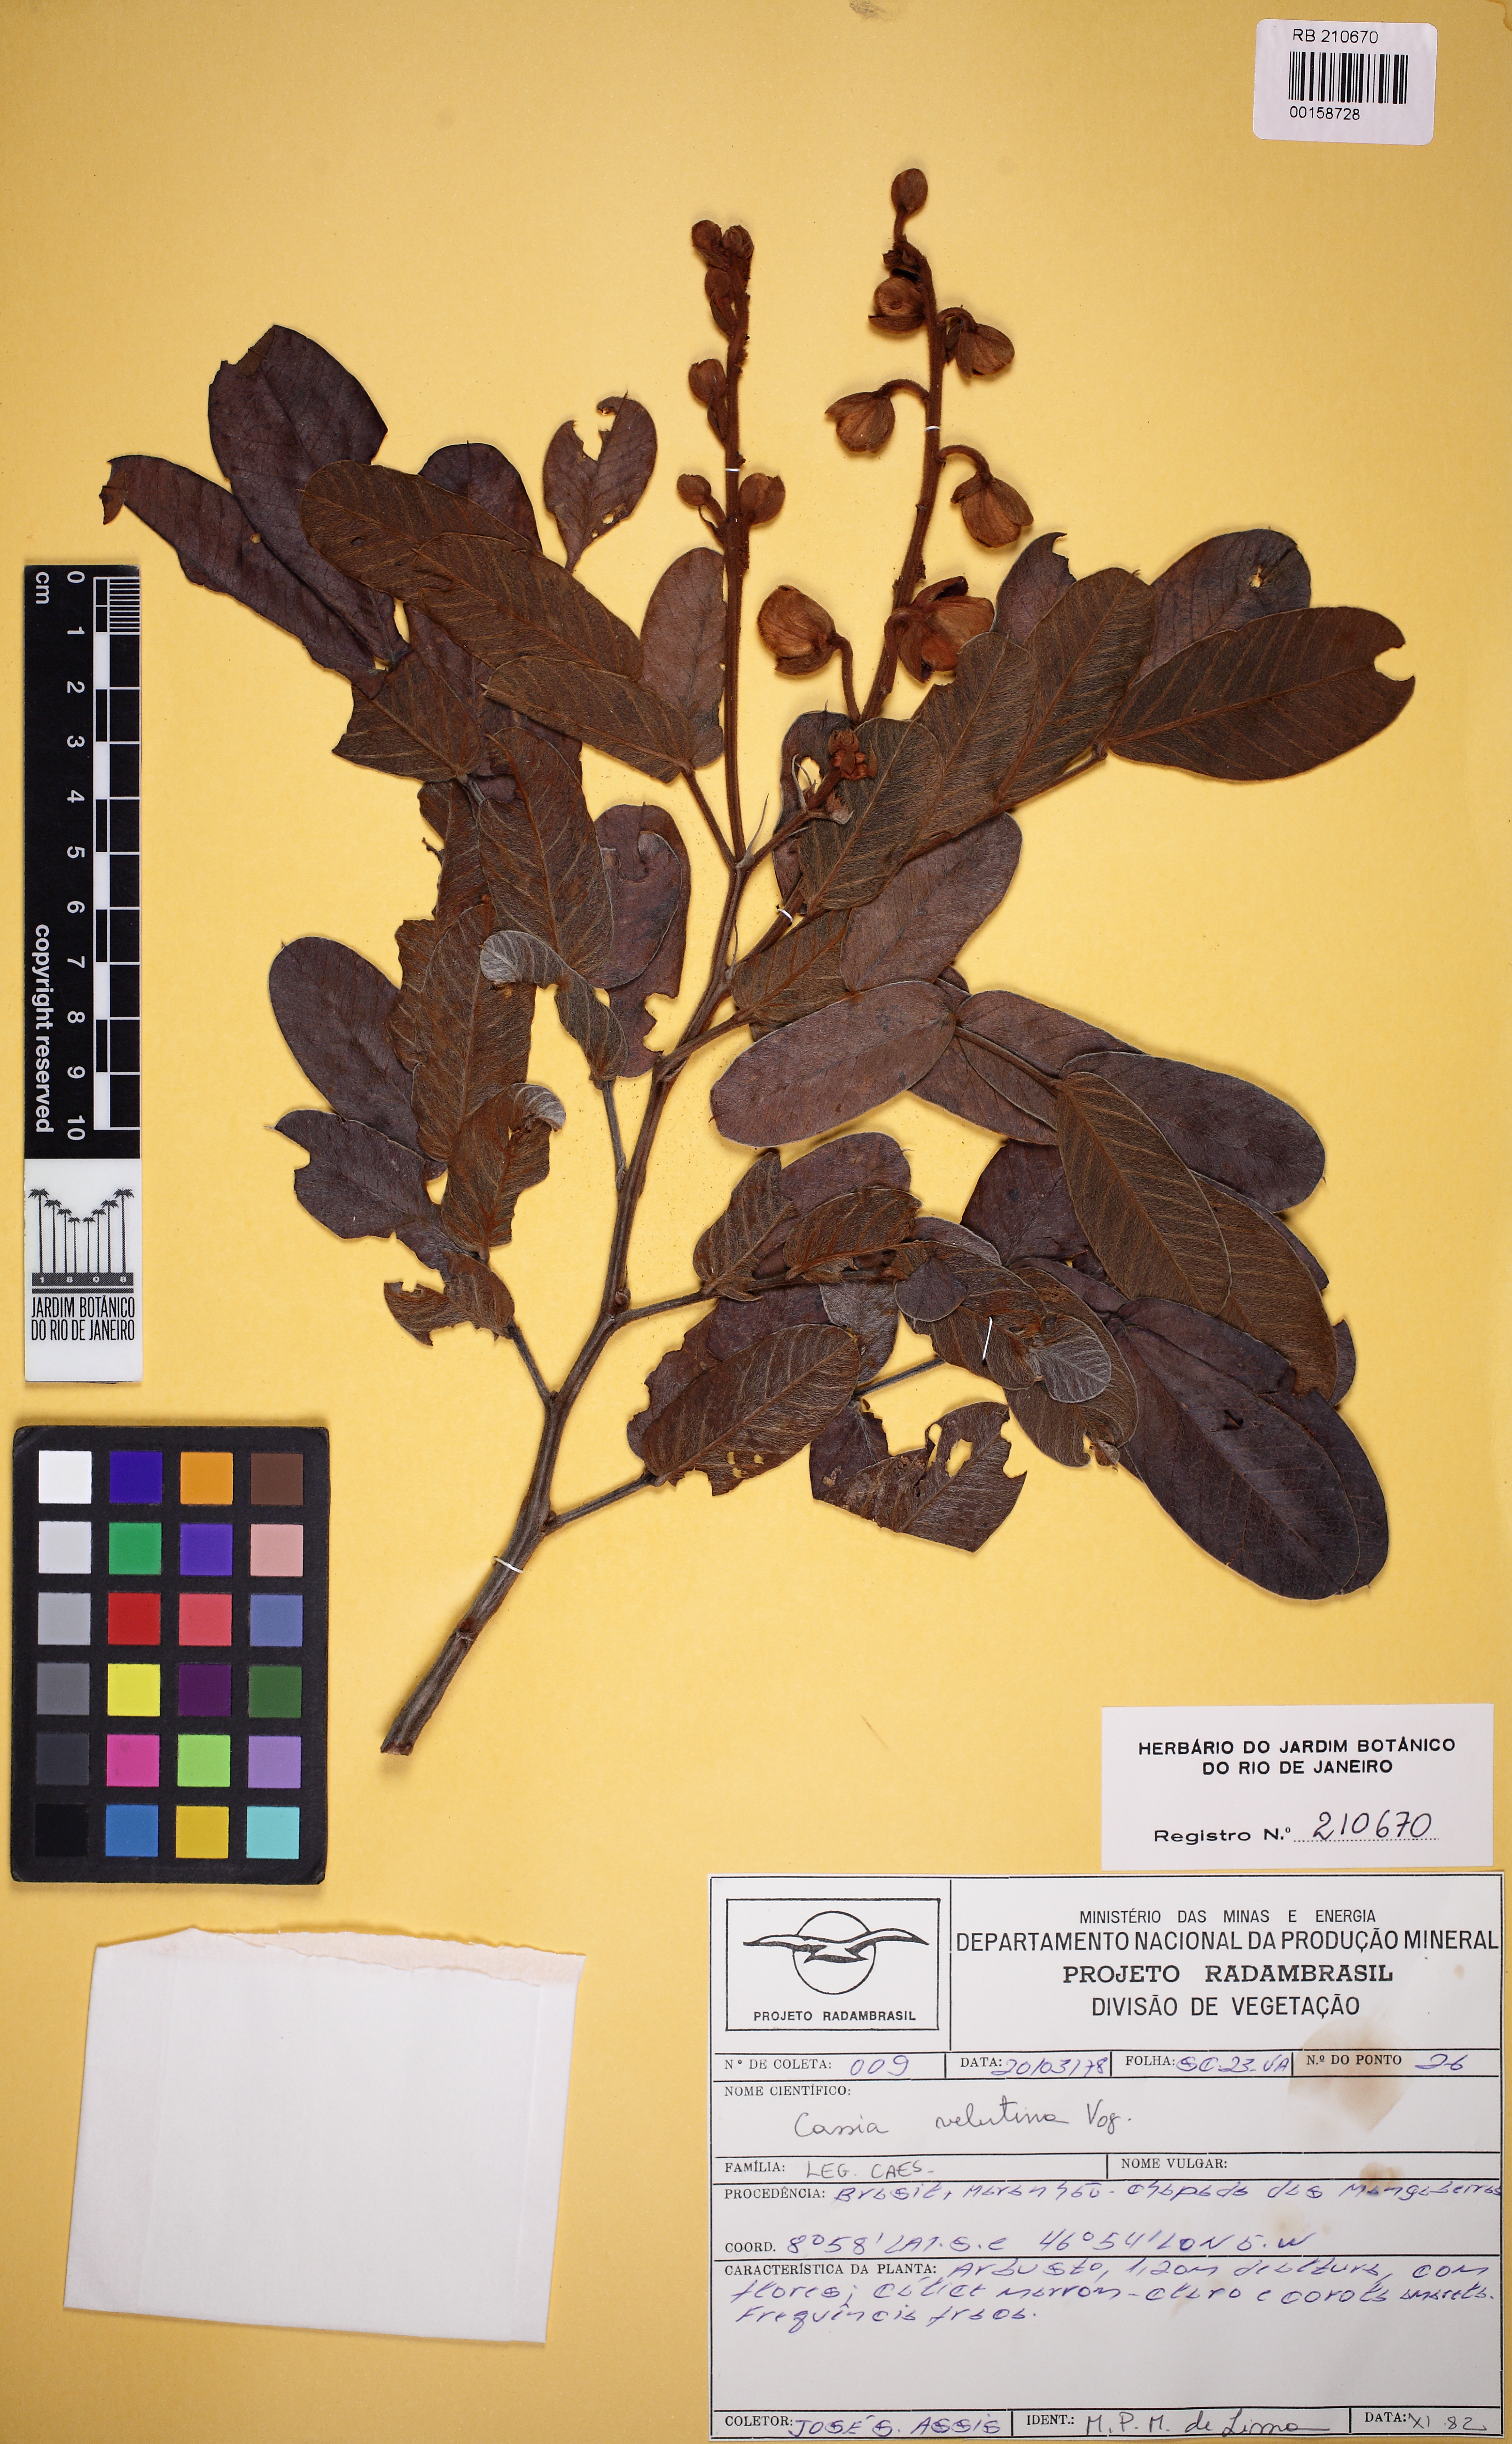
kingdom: Plantae
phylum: Tracheophyta
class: Magnoliopsida
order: Fabales
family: Fabaceae
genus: Senna
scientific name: Senna velutina
